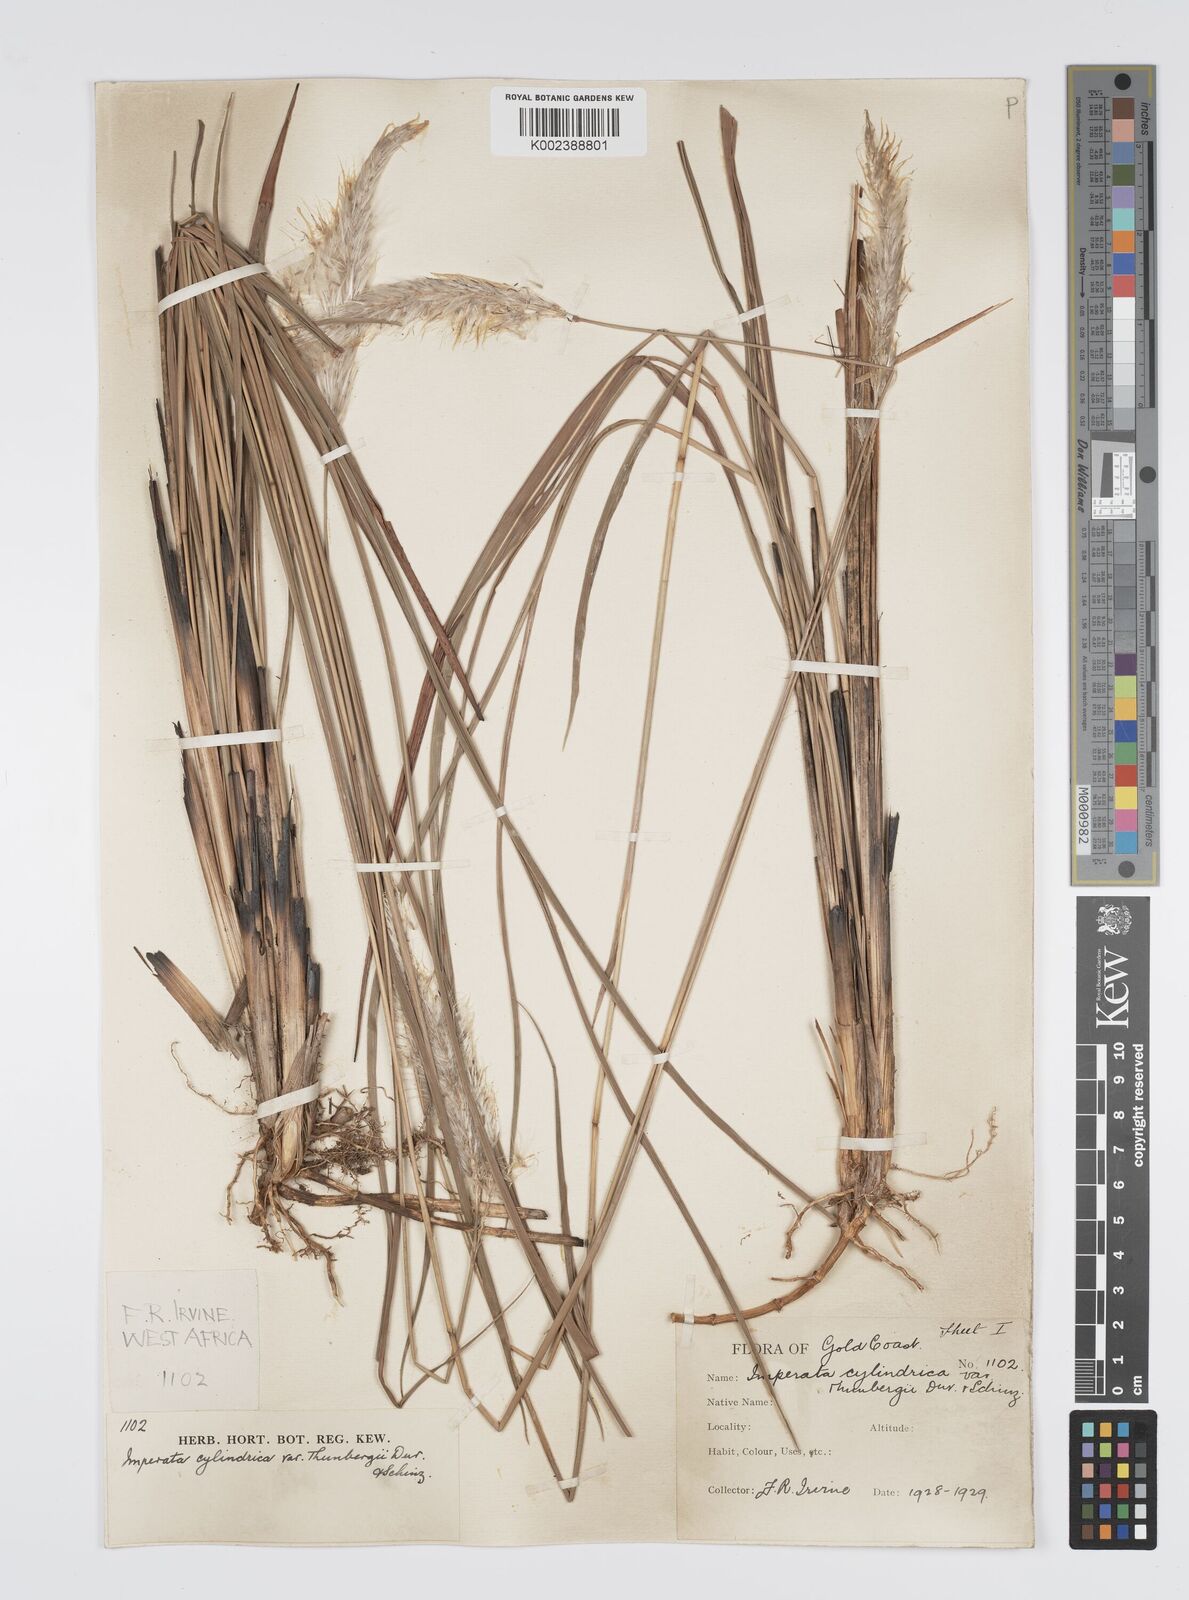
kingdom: Plantae
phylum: Tracheophyta
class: Liliopsida
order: Poales
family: Poaceae
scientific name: Poaceae
